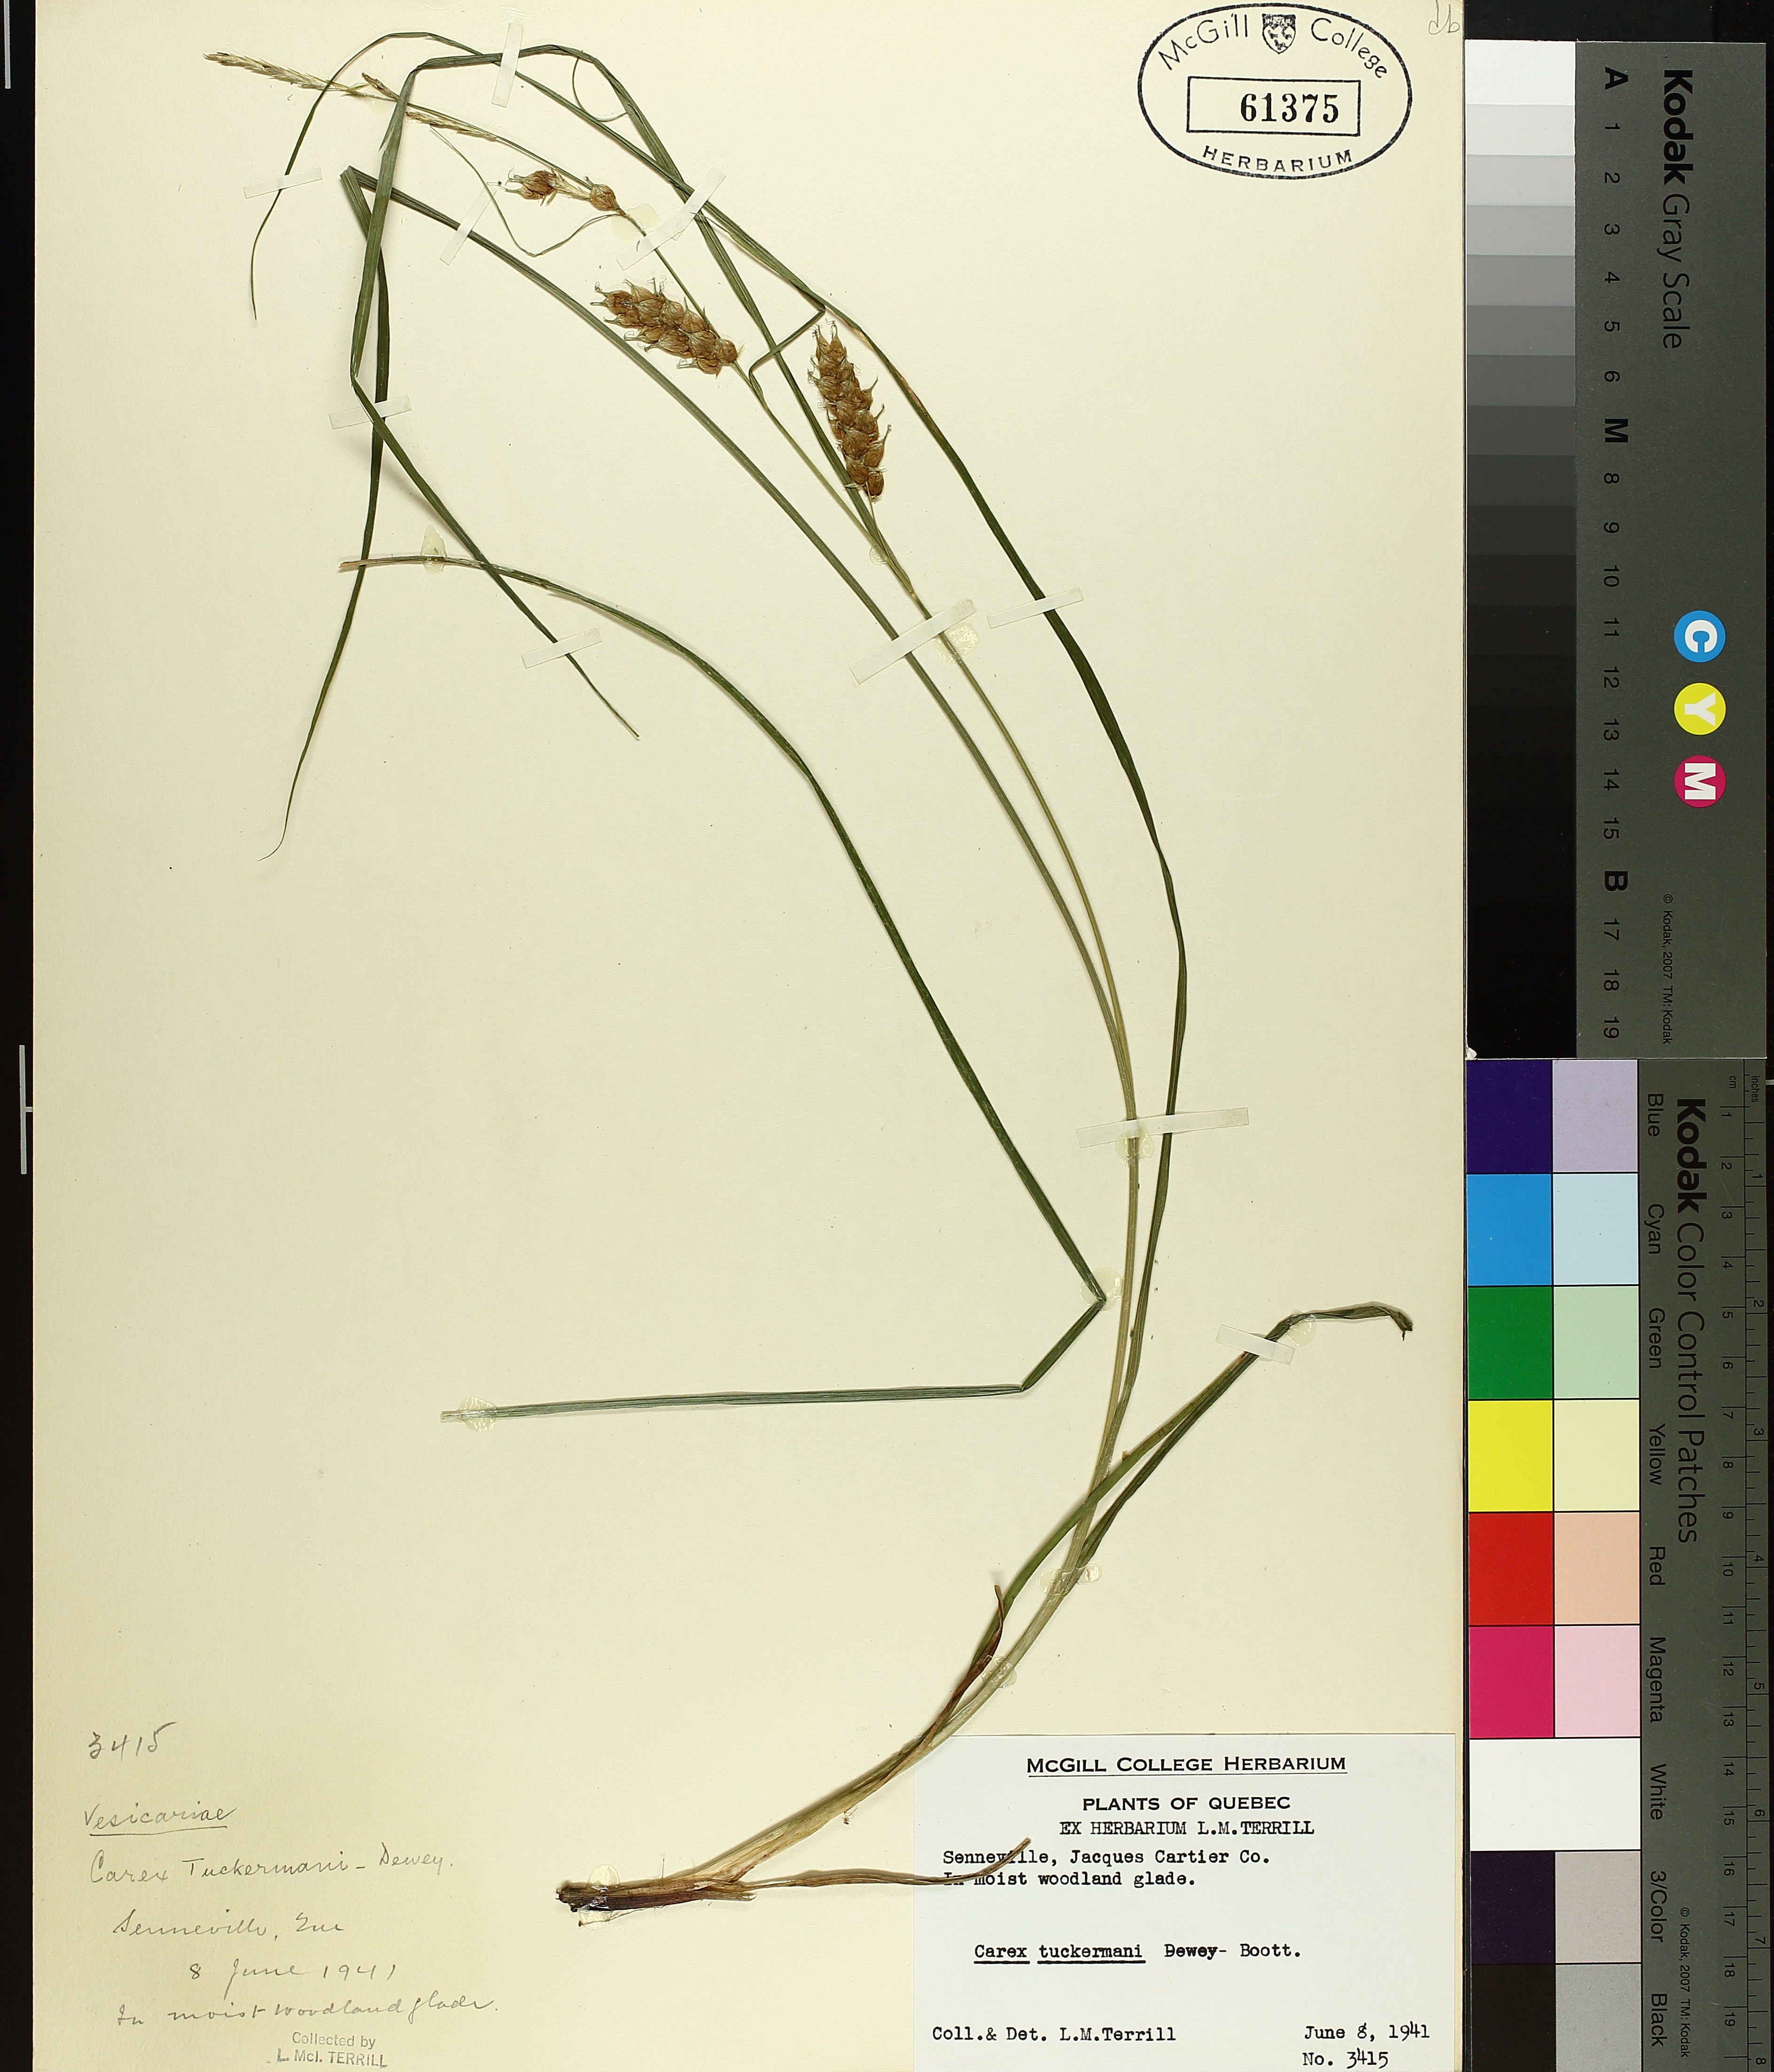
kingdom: Plantae
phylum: Tracheophyta
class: Liliopsida
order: Poales
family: Cyperaceae
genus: Carex
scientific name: Carex tuckermanii
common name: Tuckerman's sedge
